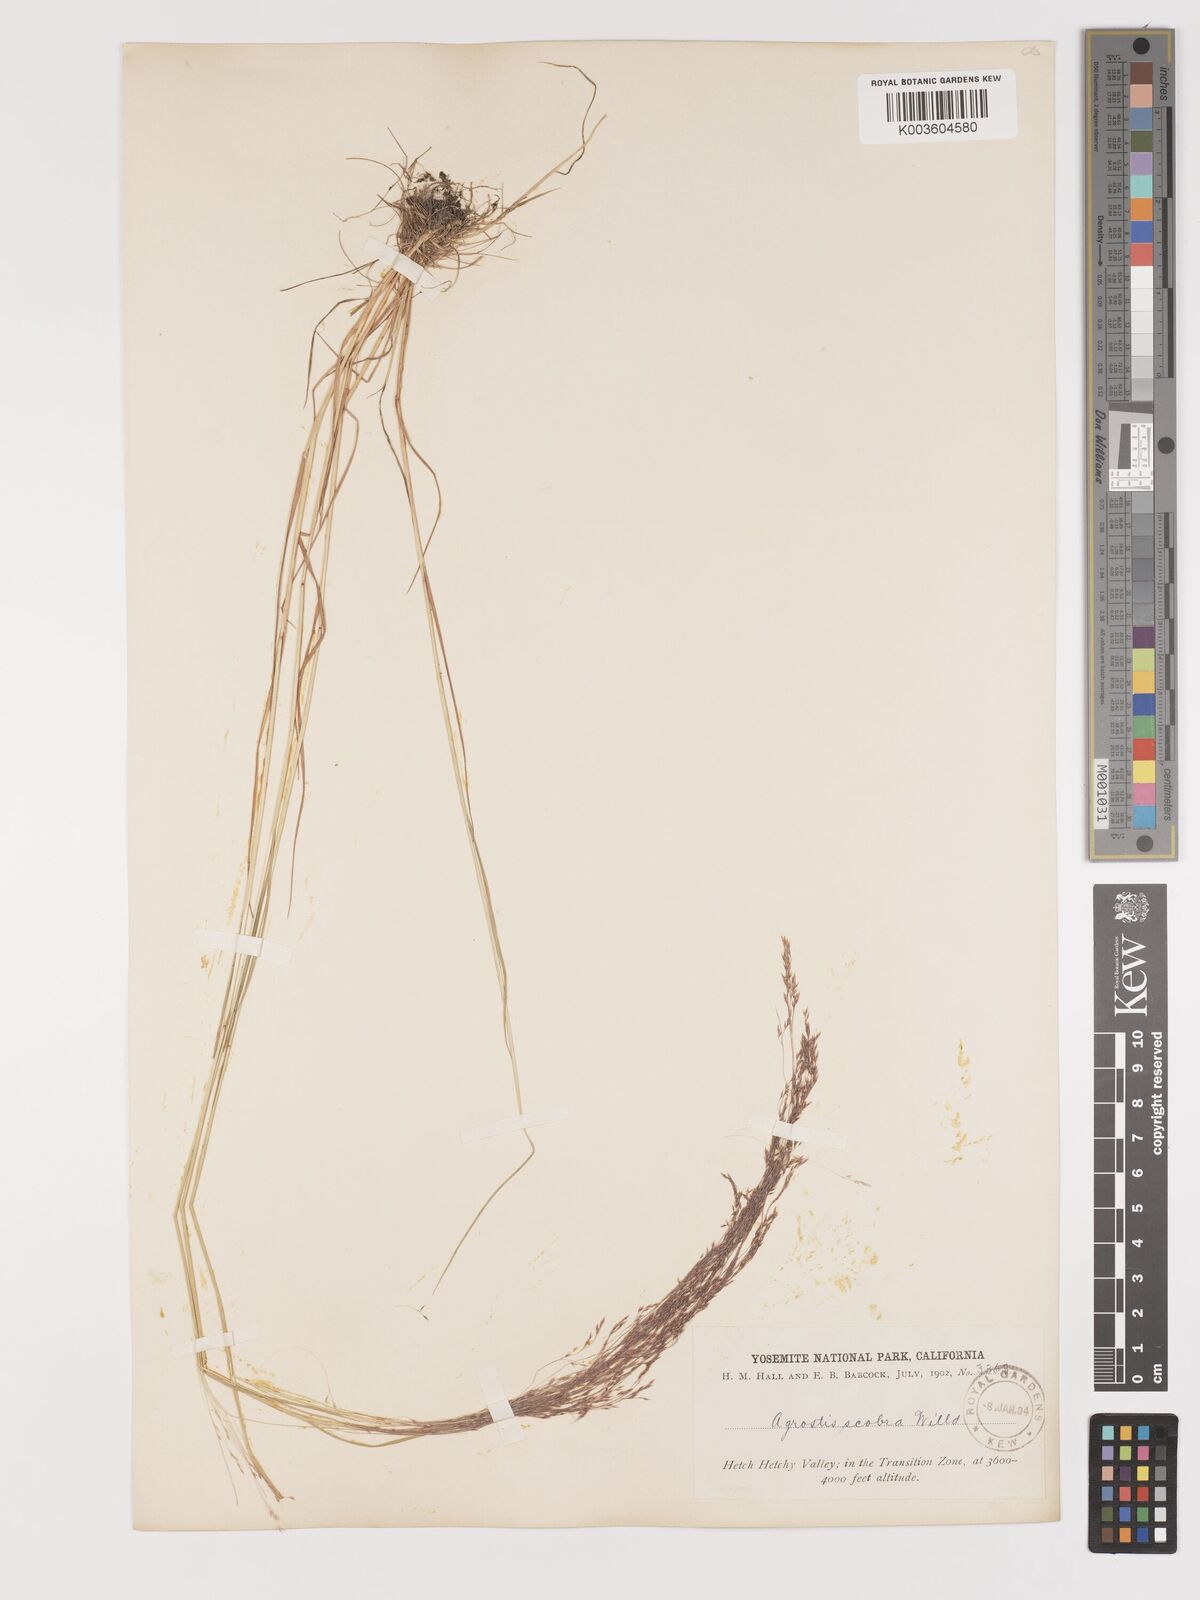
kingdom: Plantae
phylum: Tracheophyta
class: Liliopsida
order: Poales
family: Poaceae
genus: Agrostis
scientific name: Agrostis hyemalis
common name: Small bent
